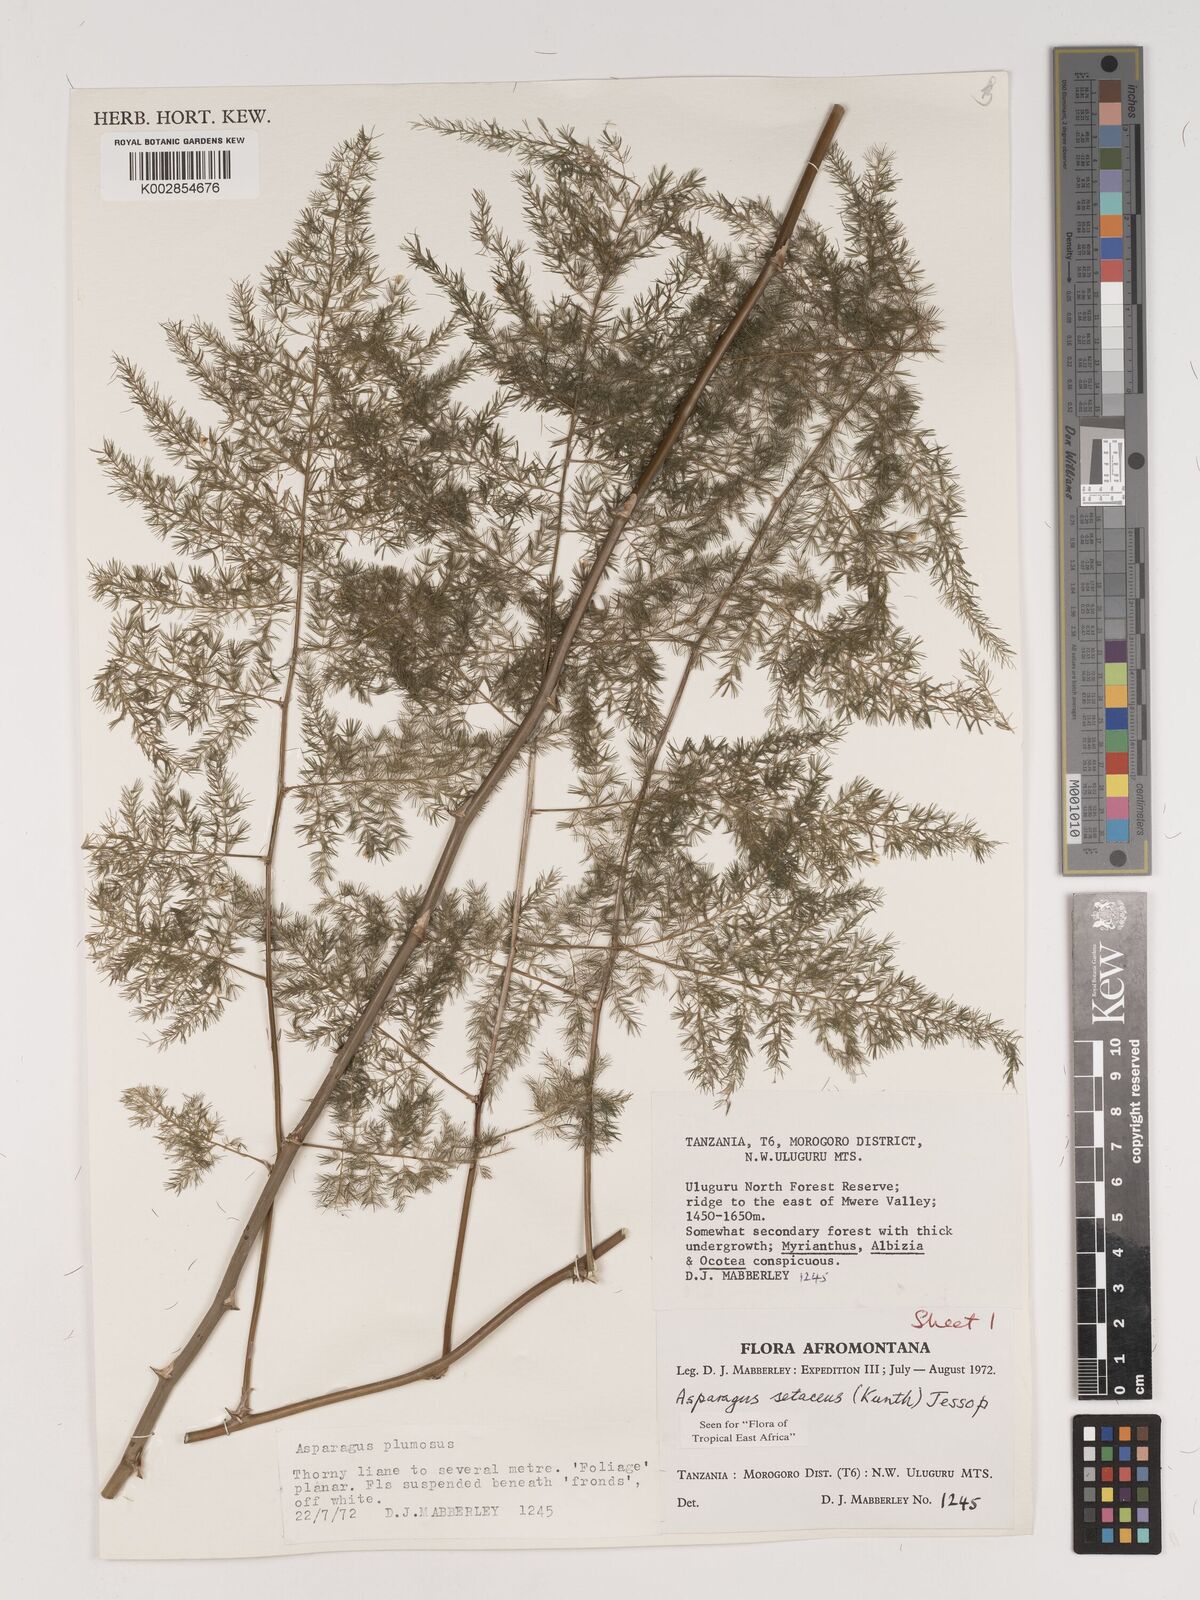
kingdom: Plantae
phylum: Tracheophyta
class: Liliopsida
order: Asparagales
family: Asparagaceae
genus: Asparagus
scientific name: Asparagus setaceus
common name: Common asparagus fern
